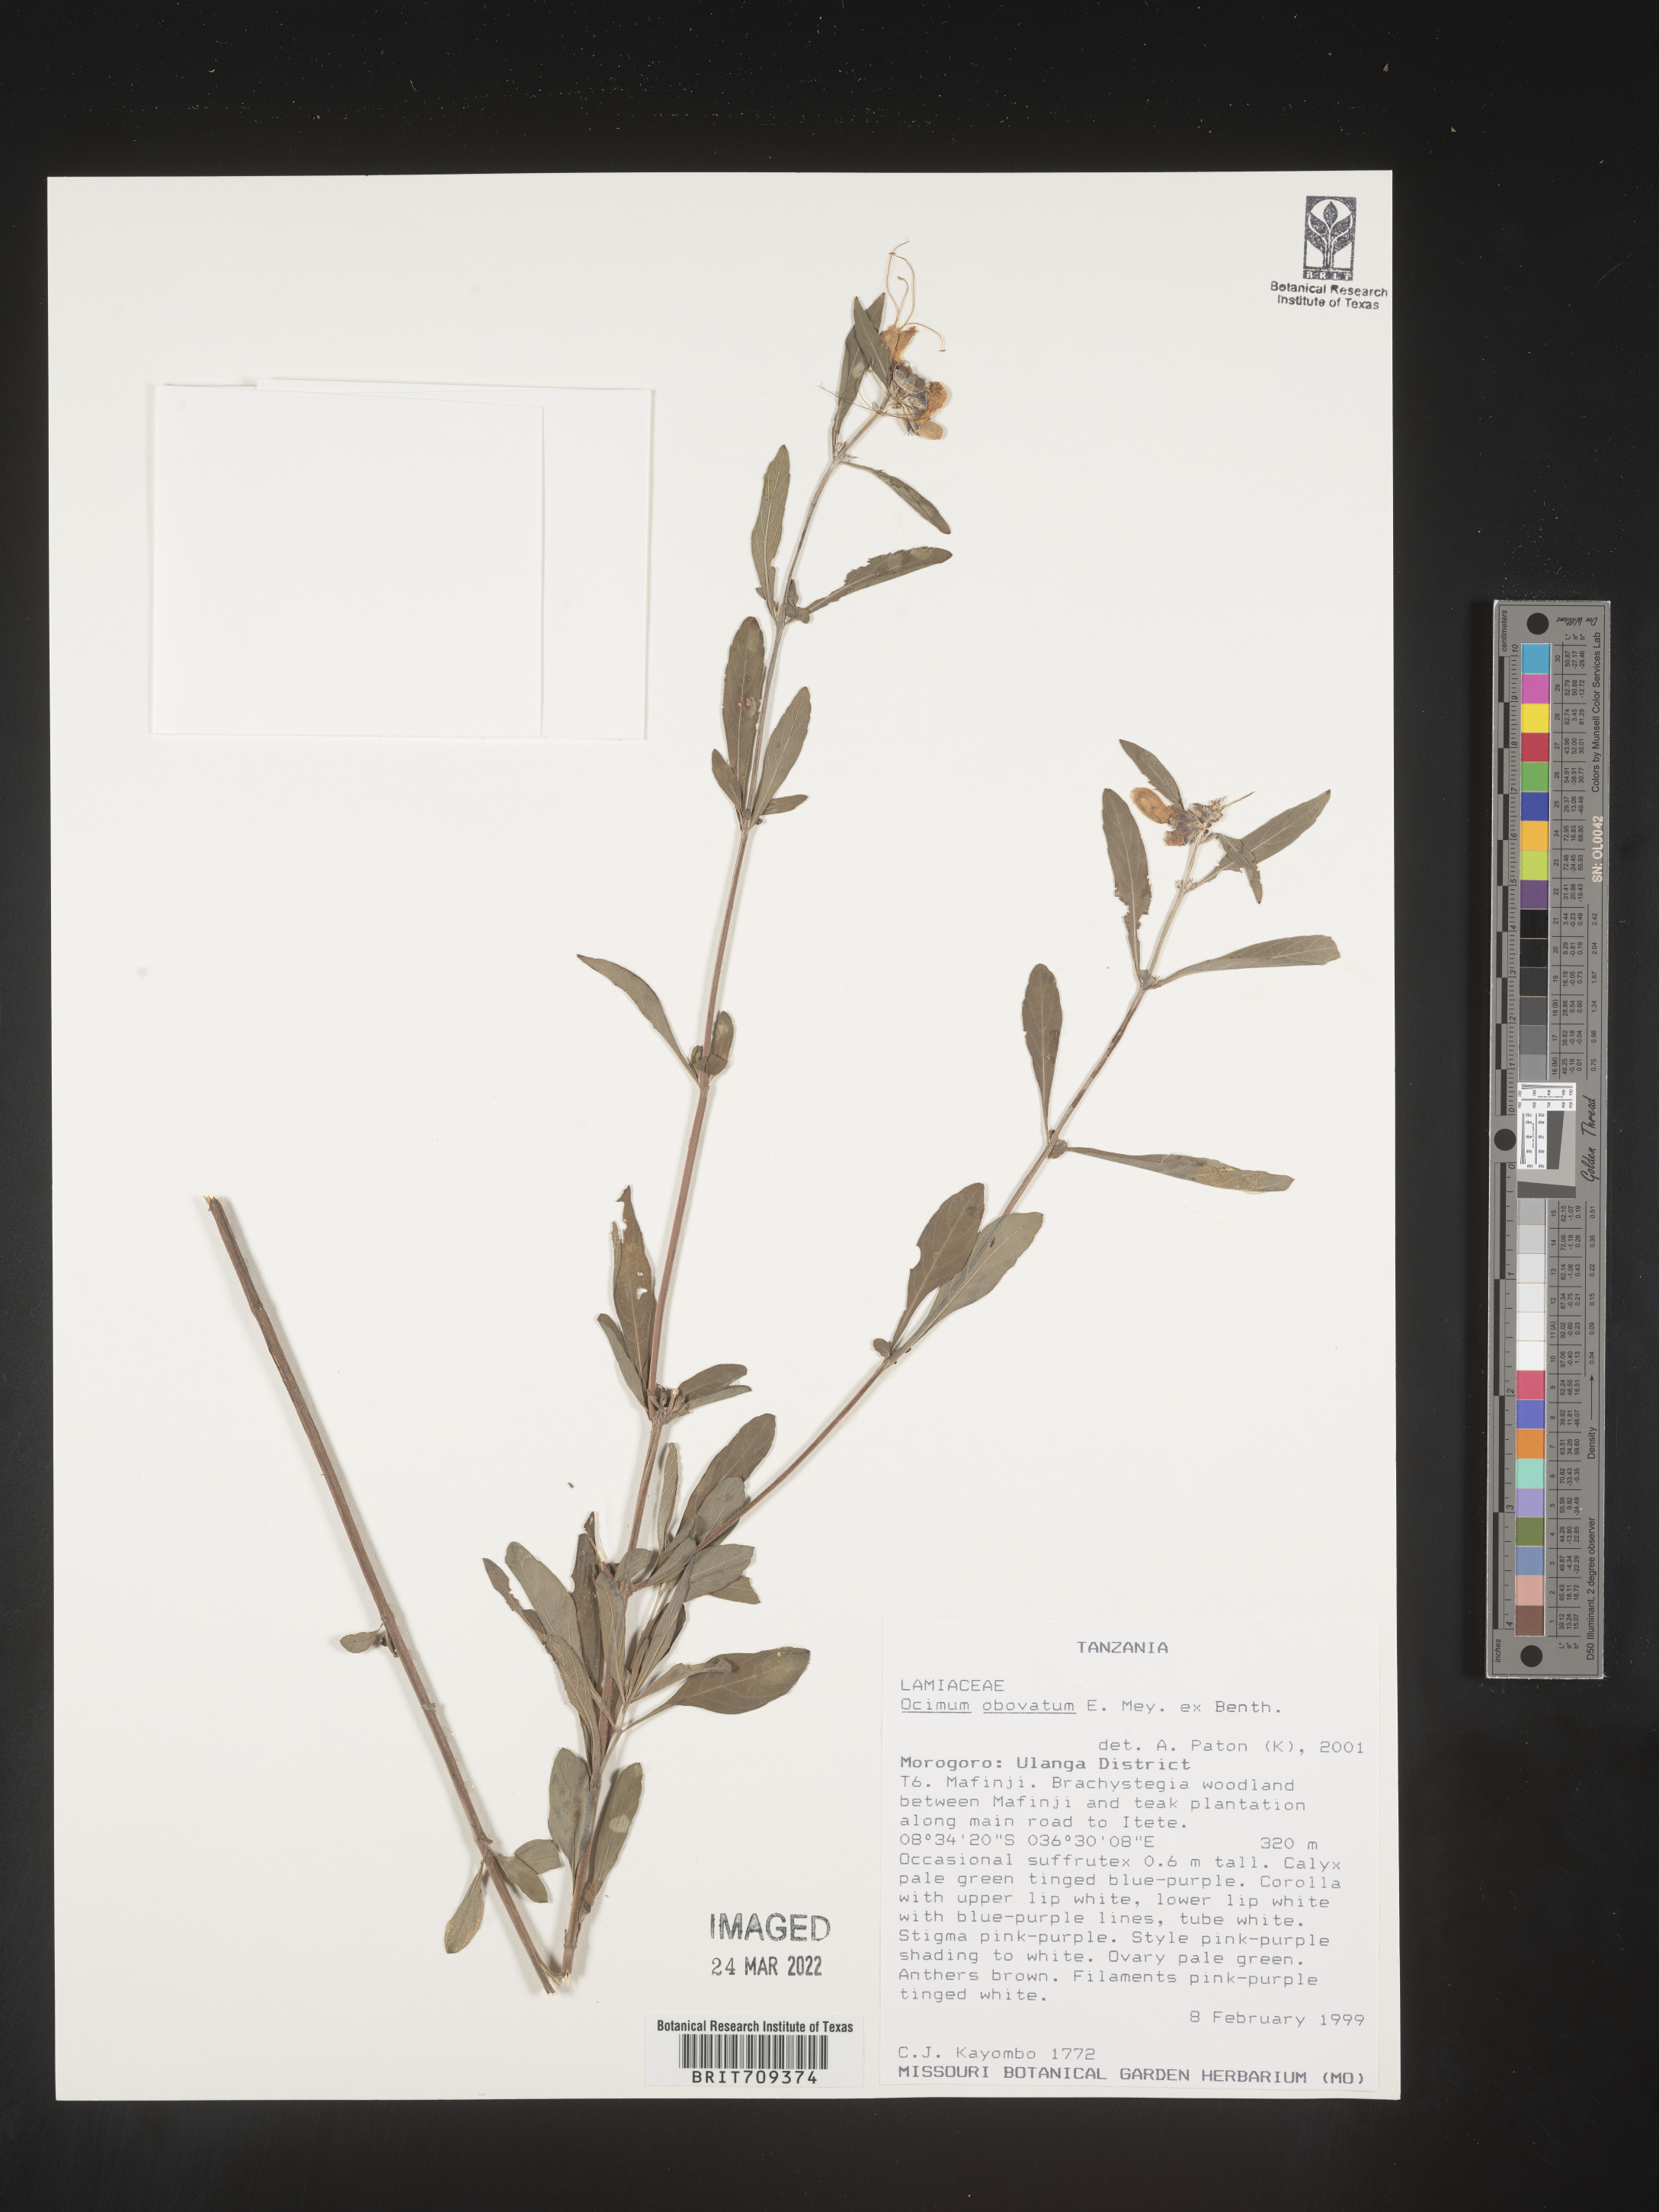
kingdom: Plantae
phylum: Tracheophyta
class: Magnoliopsida
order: Lamiales
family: Lamiaceae
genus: Ocimum
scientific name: Ocimum
